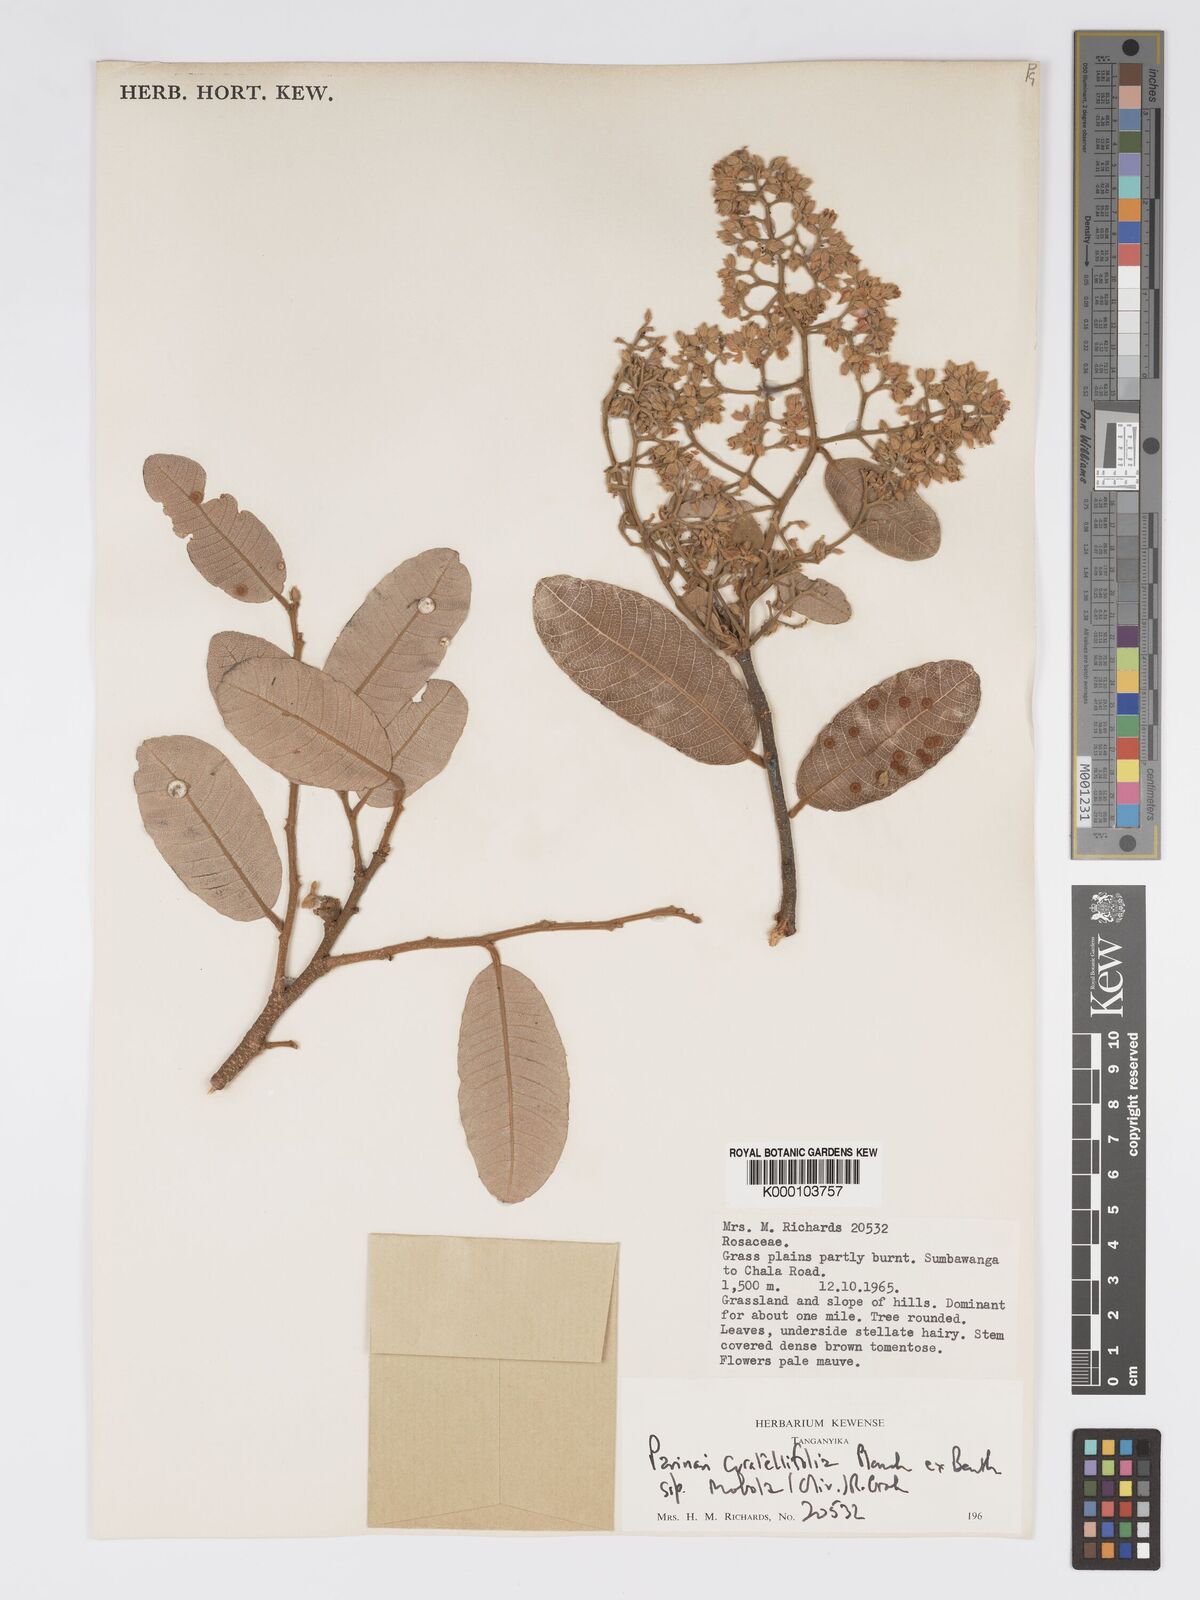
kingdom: Plantae
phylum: Tracheophyta
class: Magnoliopsida
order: Malpighiales
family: Chrysobalanaceae
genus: Parinari
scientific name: Parinari curatellifolia
